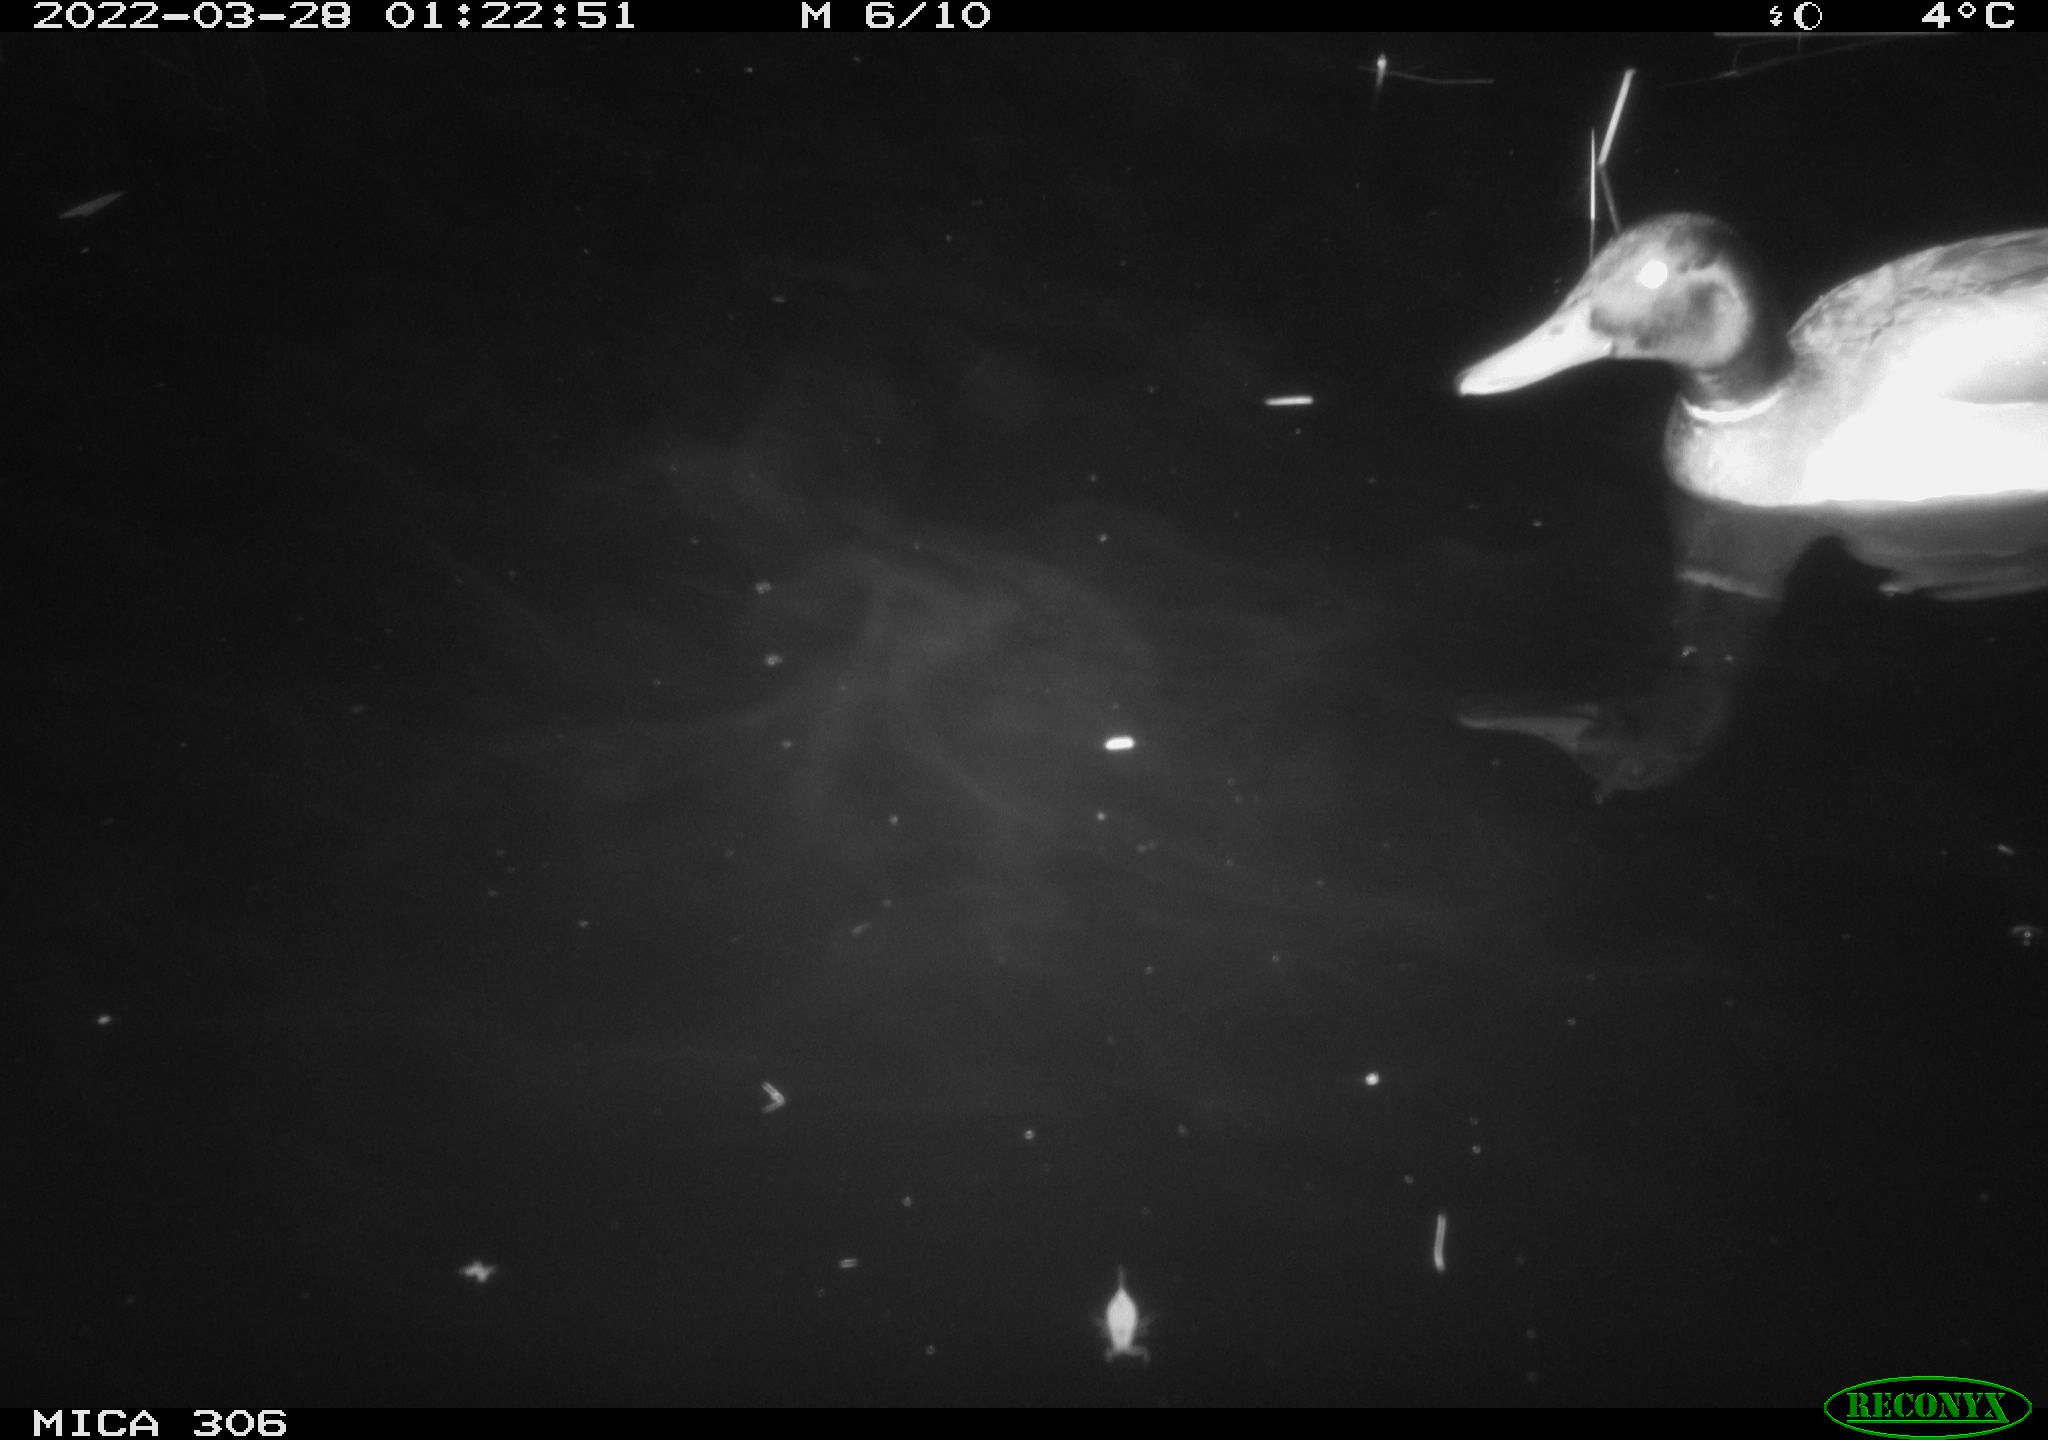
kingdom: Animalia
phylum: Chordata
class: Aves
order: Anseriformes
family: Anatidae
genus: Anas
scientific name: Anas
